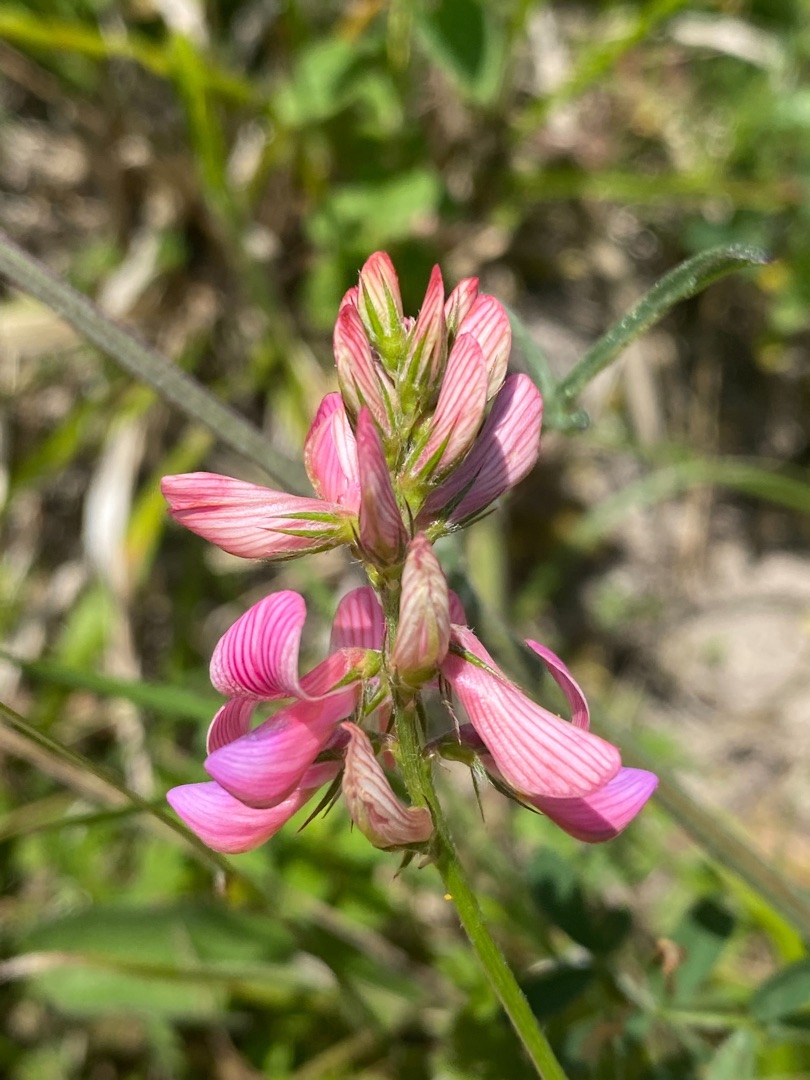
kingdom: Plantae
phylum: Tracheophyta
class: Magnoliopsida
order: Fabales
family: Fabaceae
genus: Onobrychis
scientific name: Onobrychis viciifolia
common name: Esparsette
